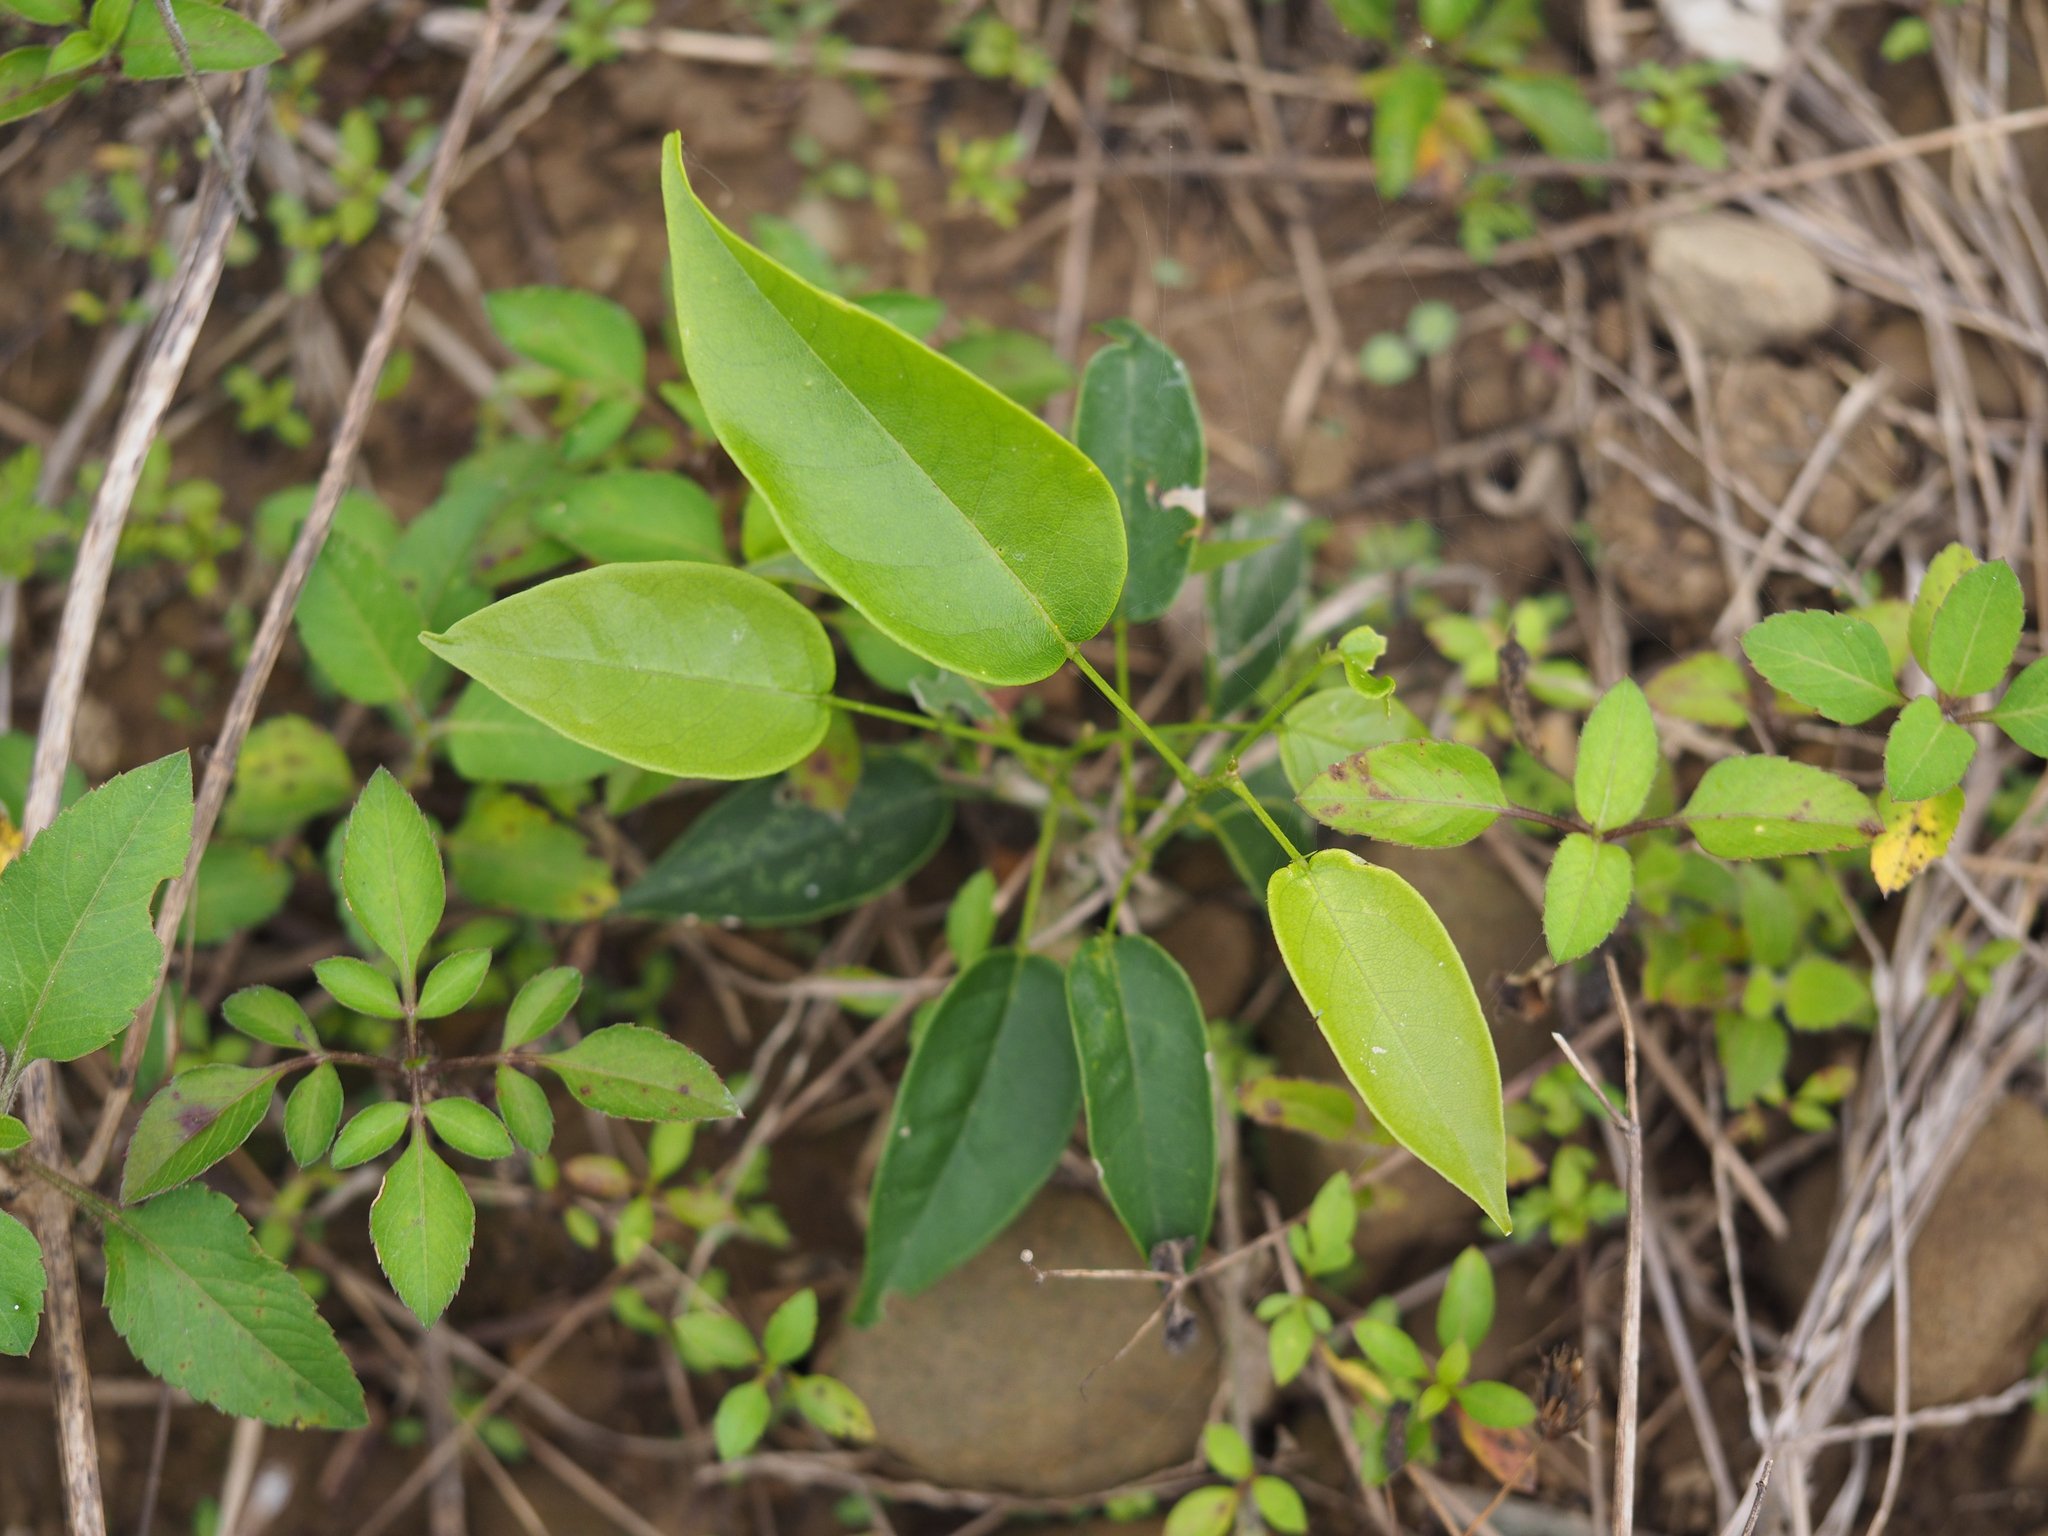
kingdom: Plantae
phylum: Tracheophyta
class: Magnoliopsida
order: Fabales
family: Fabaceae
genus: Wisteriopsis
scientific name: Wisteriopsis reticulata
